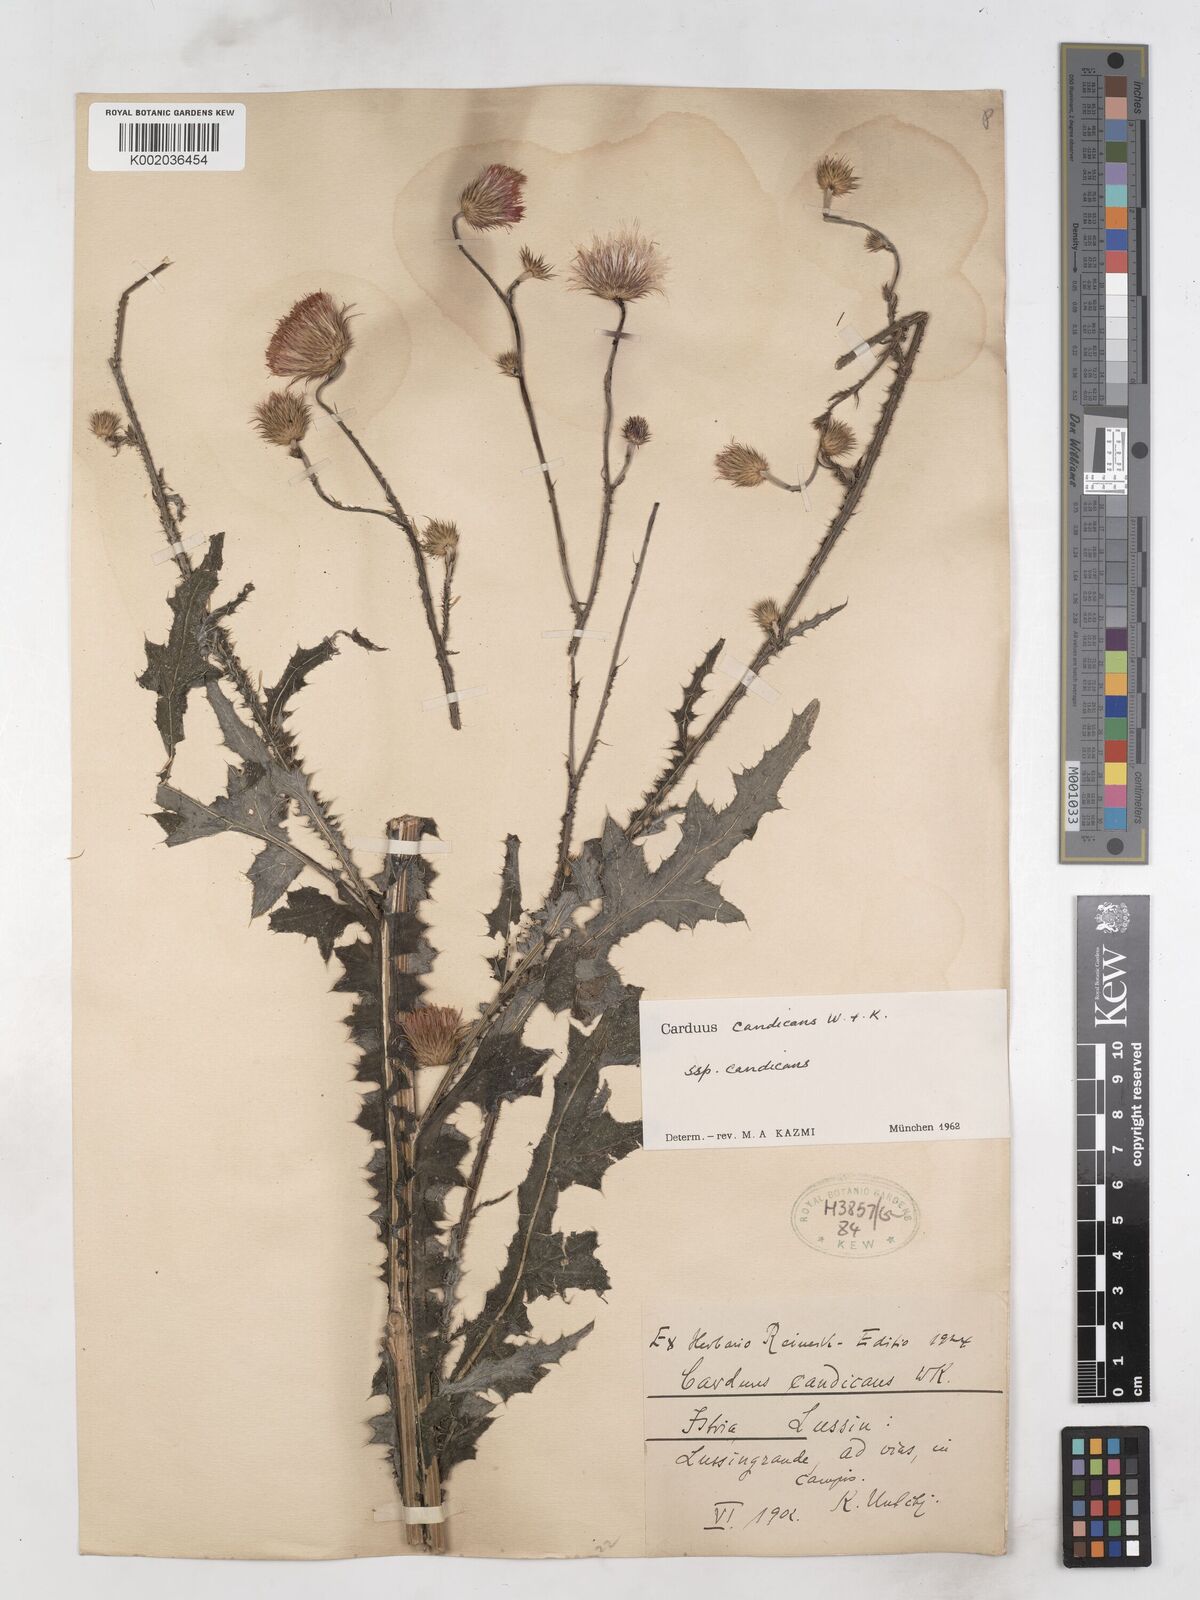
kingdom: Plantae
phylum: Tracheophyta
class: Magnoliopsida
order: Asterales
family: Asteraceae
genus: Carduus
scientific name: Carduus candicans
